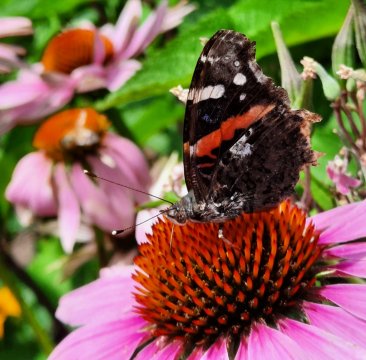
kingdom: Animalia
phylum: Arthropoda
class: Insecta
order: Lepidoptera
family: Nymphalidae
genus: Vanessa
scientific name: Vanessa atalanta
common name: Red Admiral
